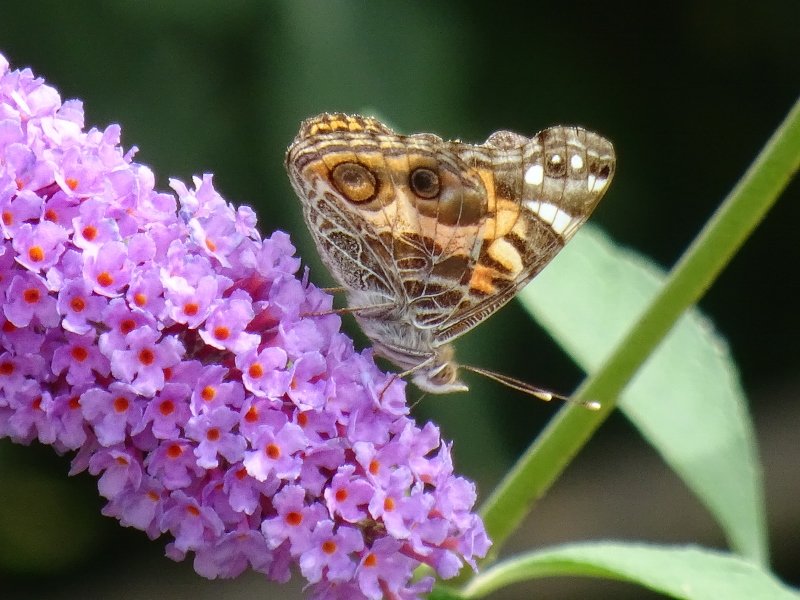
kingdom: Animalia
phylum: Arthropoda
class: Insecta
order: Lepidoptera
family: Nymphalidae
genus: Vanessa
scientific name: Vanessa virginiensis
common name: American Lady
